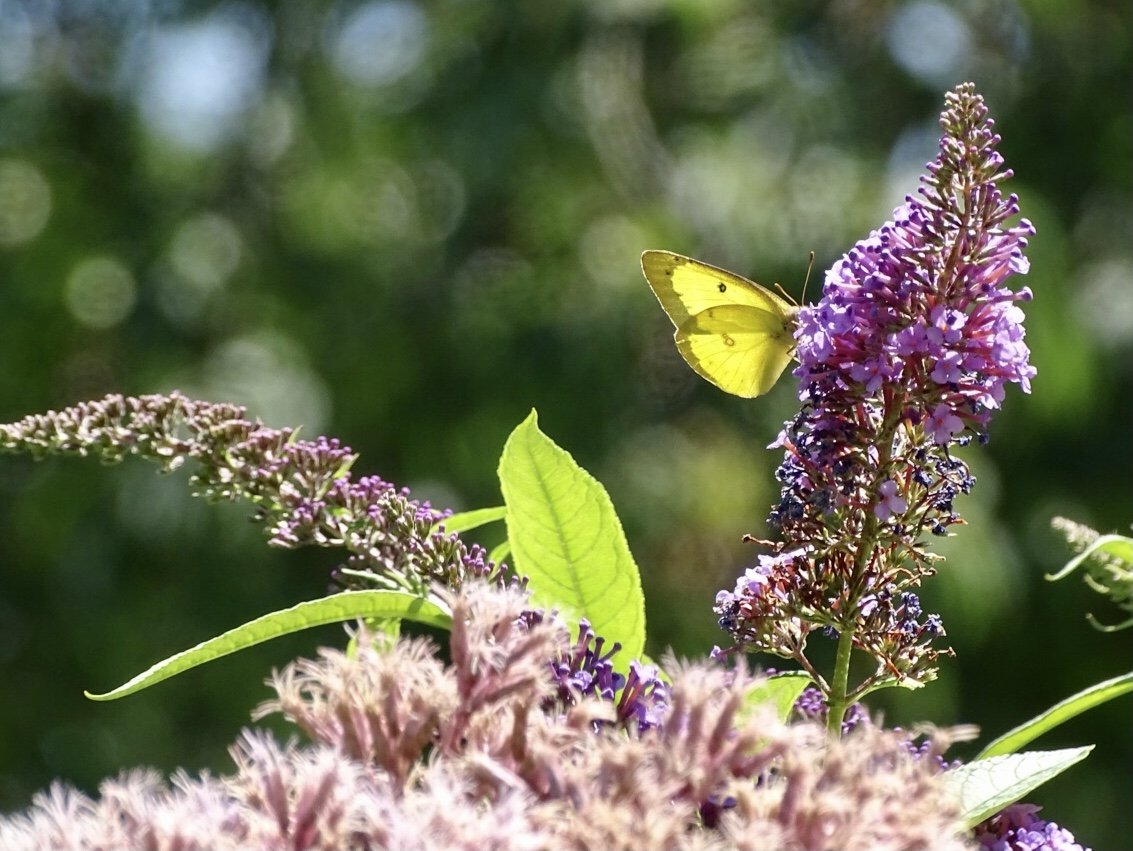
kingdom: Animalia
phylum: Arthropoda
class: Insecta
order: Lepidoptera
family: Pieridae
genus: Colias
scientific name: Colias philodice
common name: Clouded Sulphur
